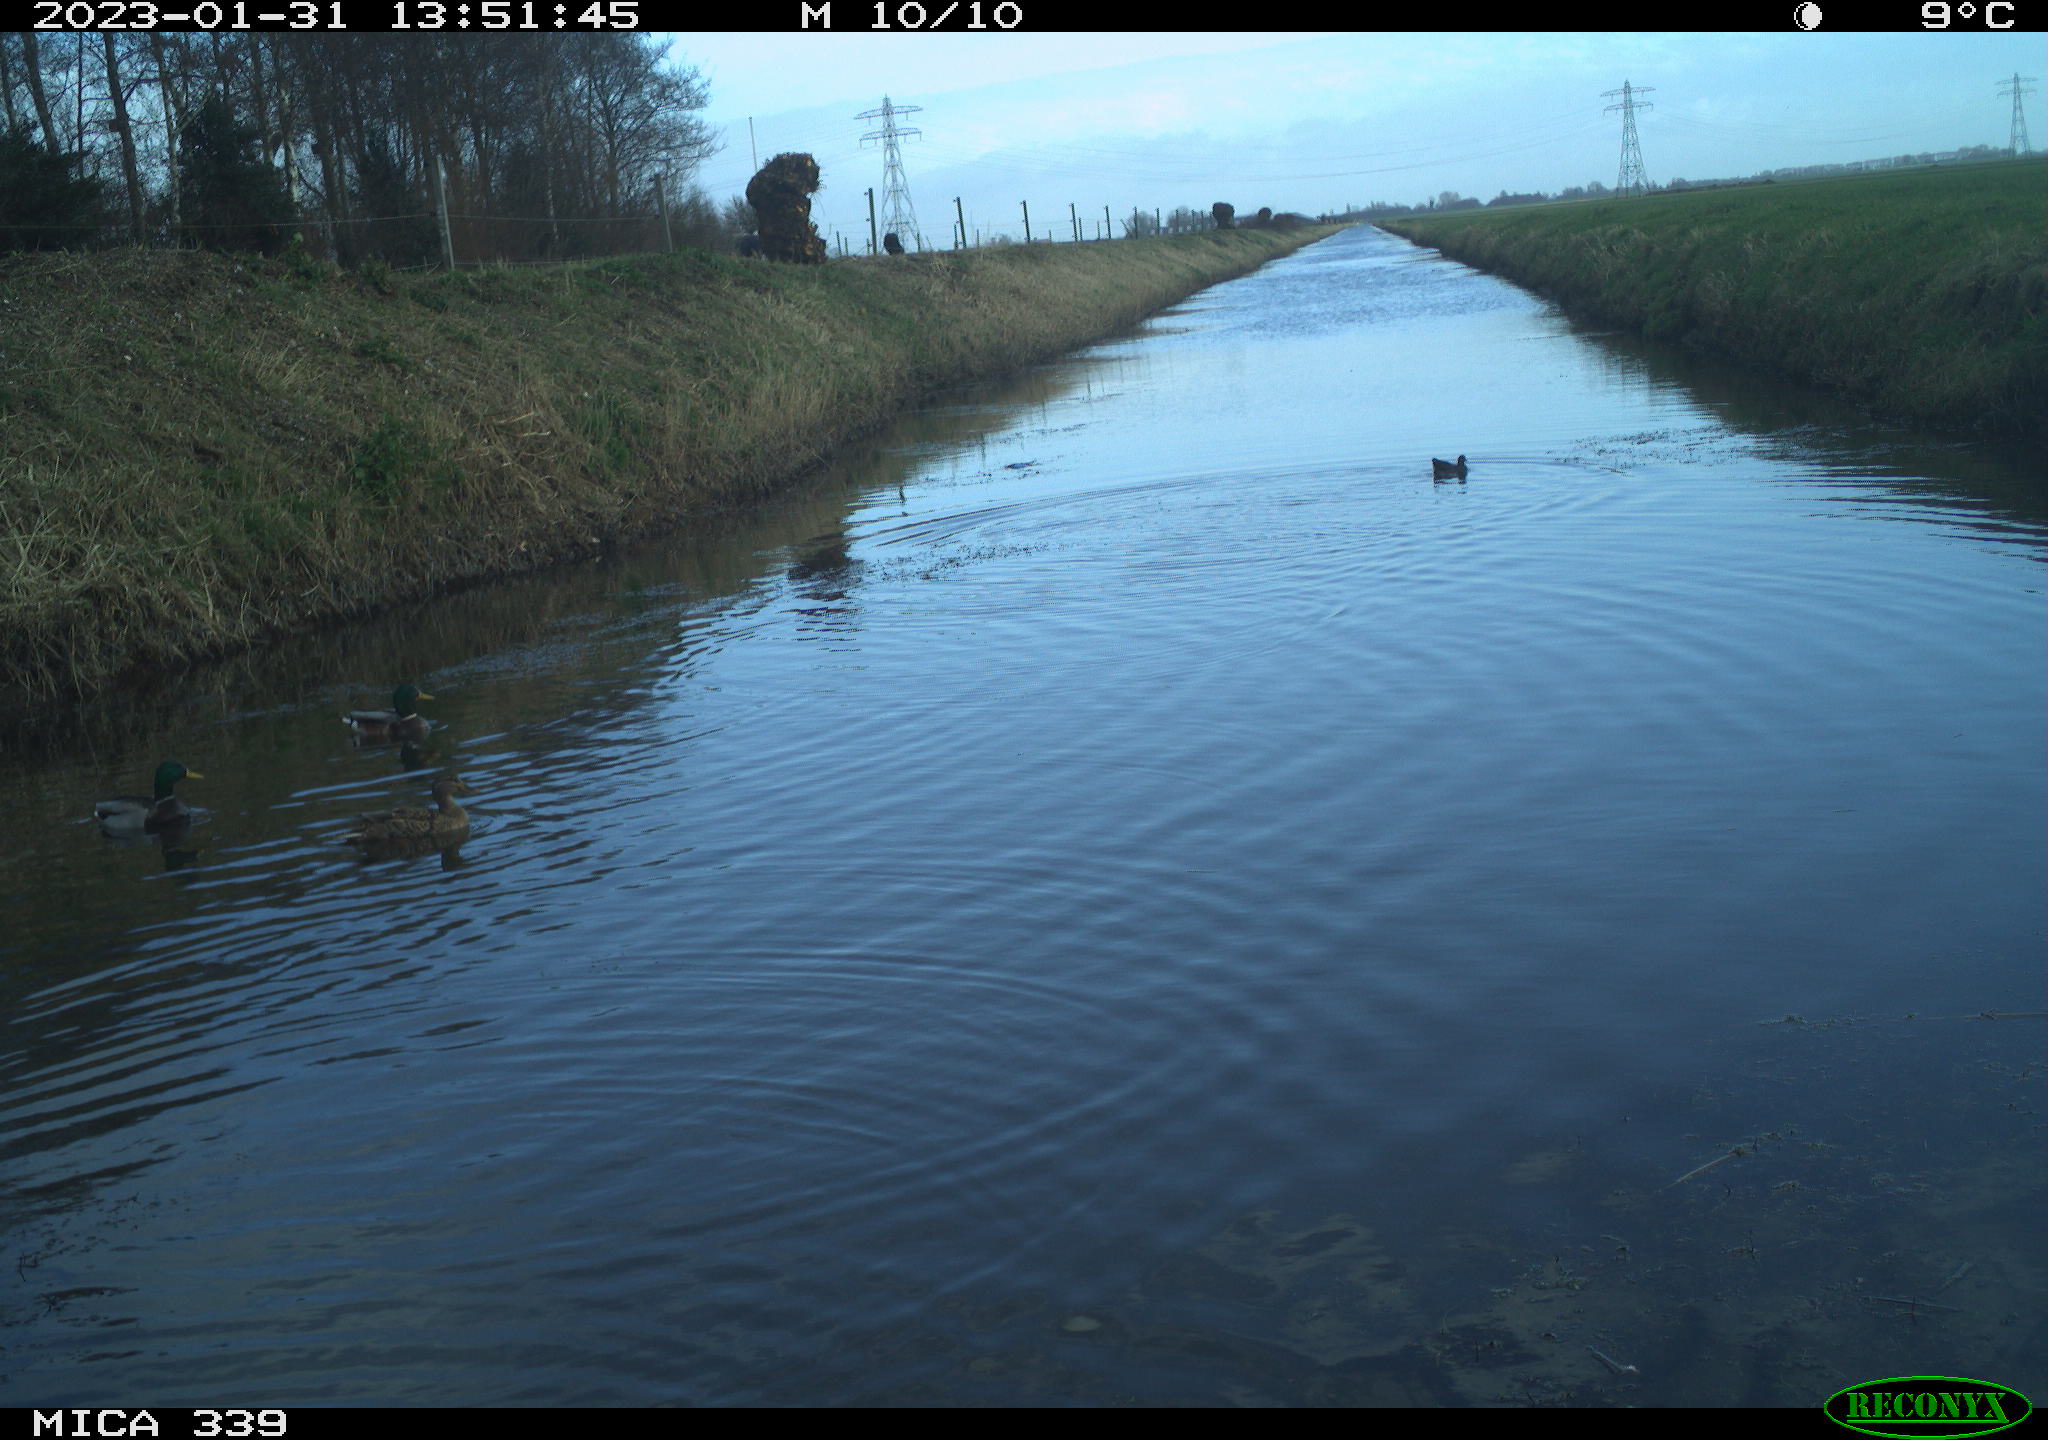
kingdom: Animalia
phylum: Chordata
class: Aves
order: Anseriformes
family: Anatidae
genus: Anas
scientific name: Anas
